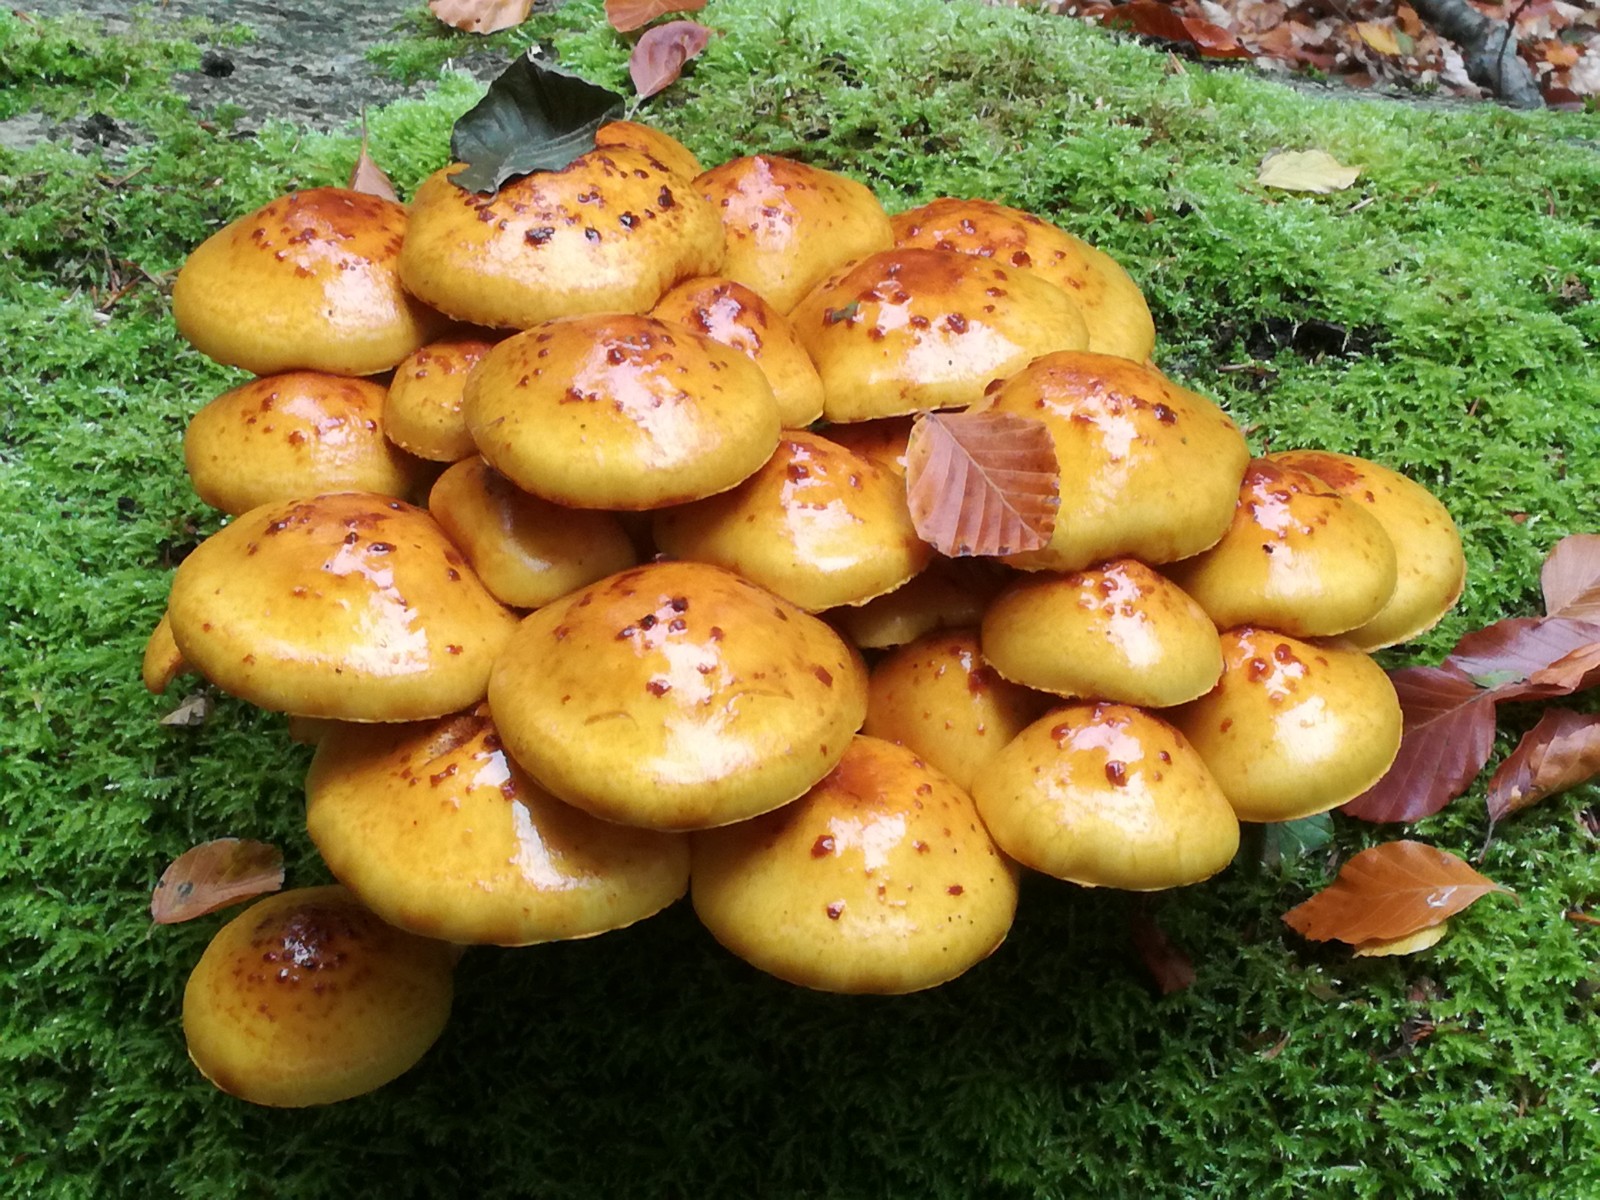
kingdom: Fungi
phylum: Basidiomycota
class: Agaricomycetes
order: Agaricales
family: Strophariaceae
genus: Pholiota
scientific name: Pholiota adiposa
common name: højtsiddende skælhat
